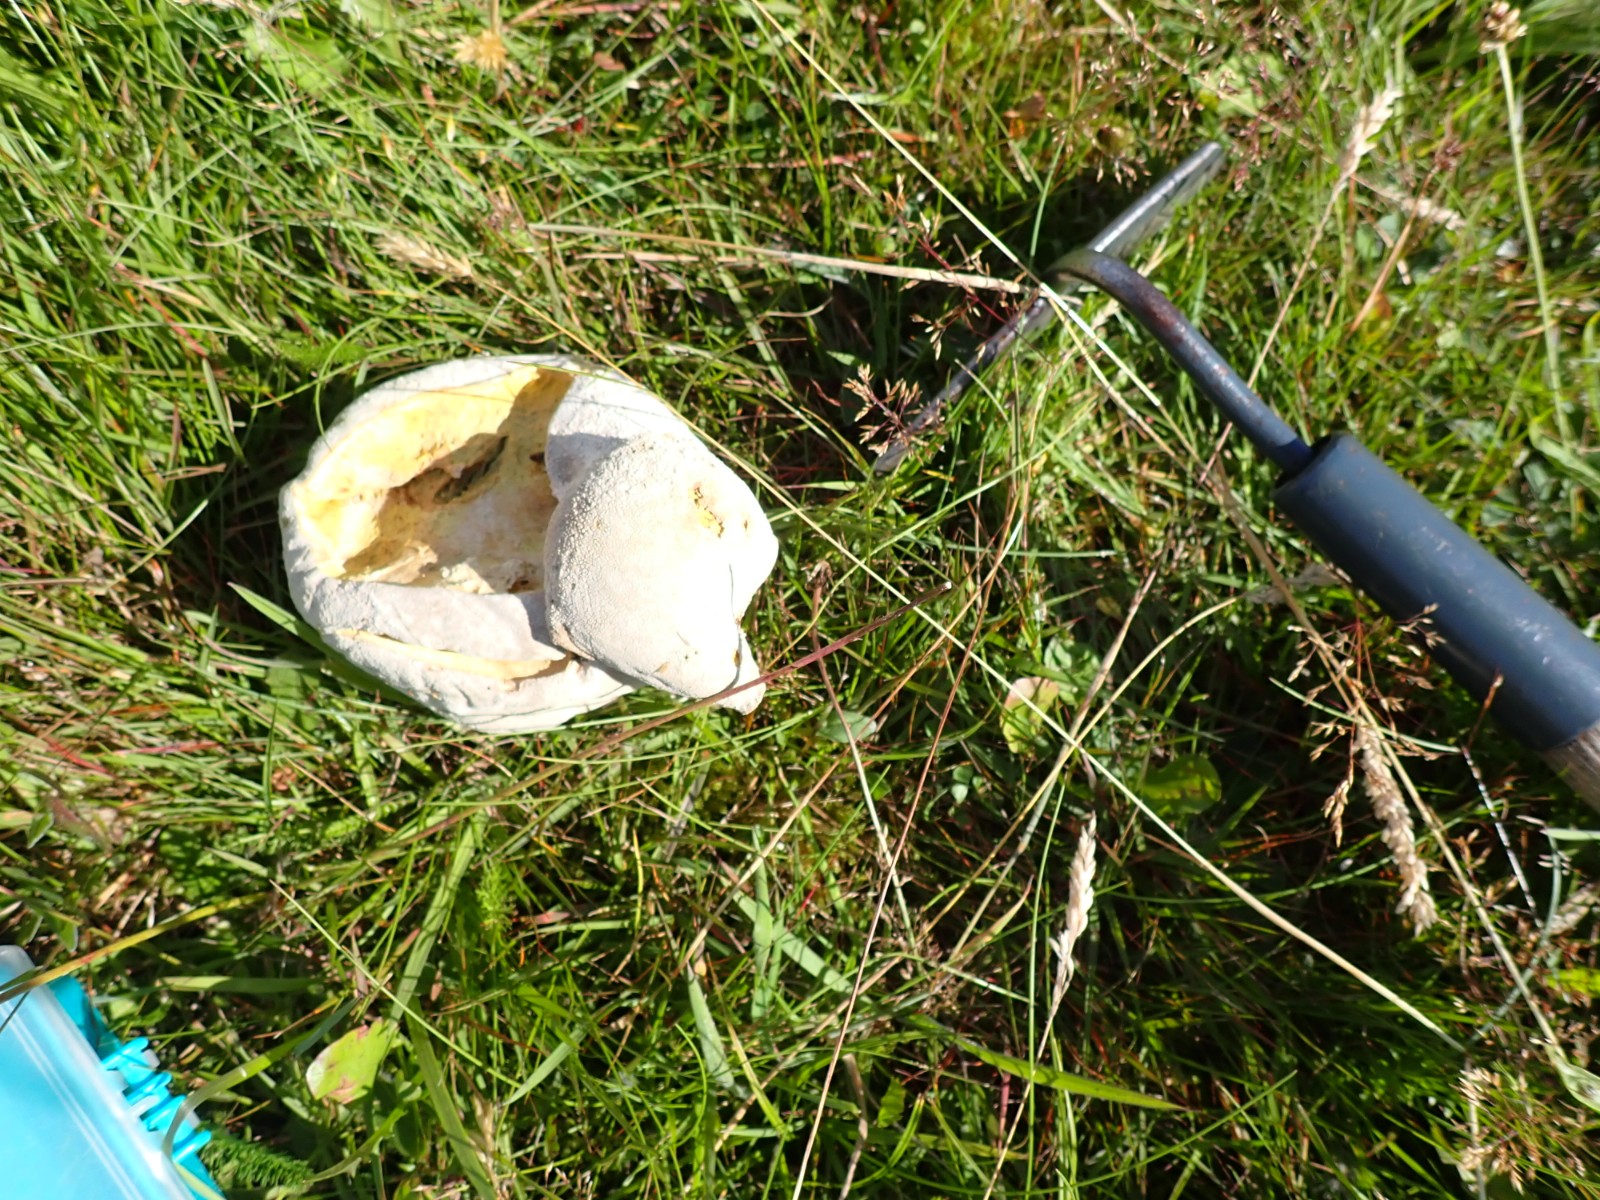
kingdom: Fungi
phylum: Basidiomycota
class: Agaricomycetes
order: Agaricales
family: Lycoperdaceae
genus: Bovistella
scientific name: Bovistella utriformis
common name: skællet støvbold
